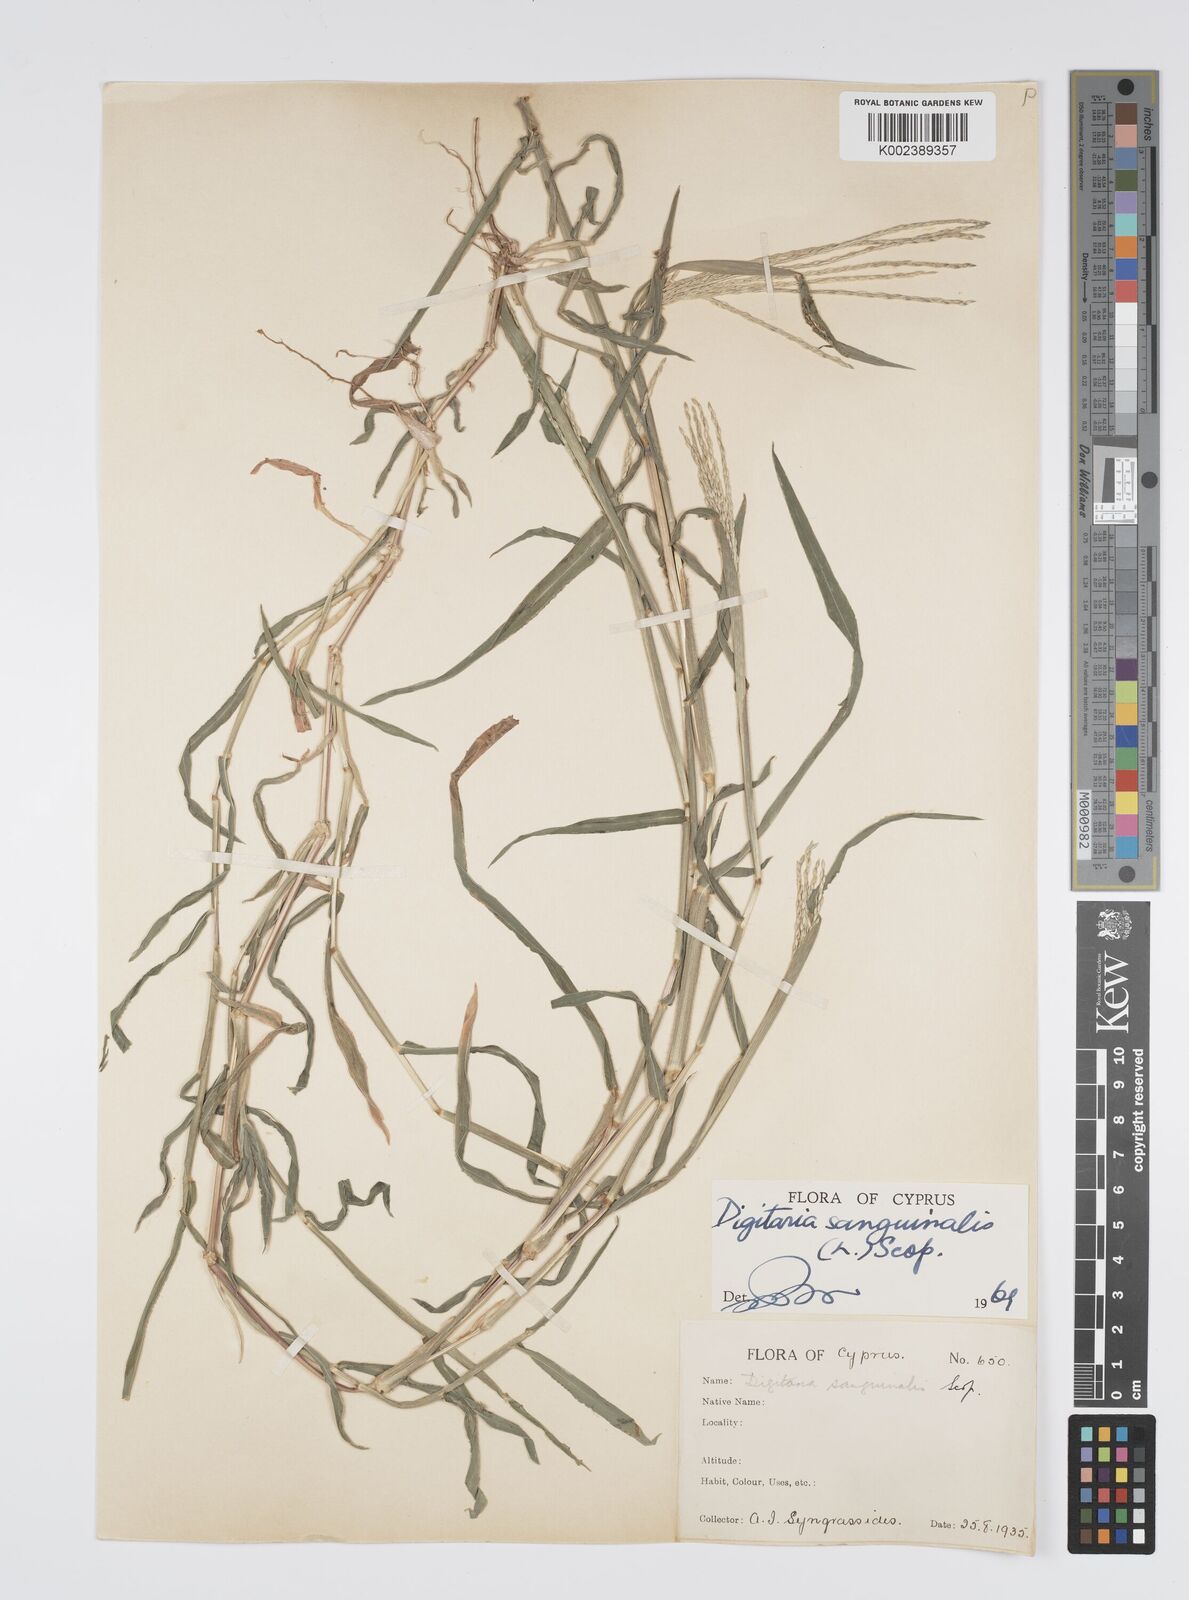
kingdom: Plantae
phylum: Tracheophyta
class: Liliopsida
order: Poales
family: Poaceae
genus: Digitaria
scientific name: Digitaria sanguinalis
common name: Hairy crabgrass
